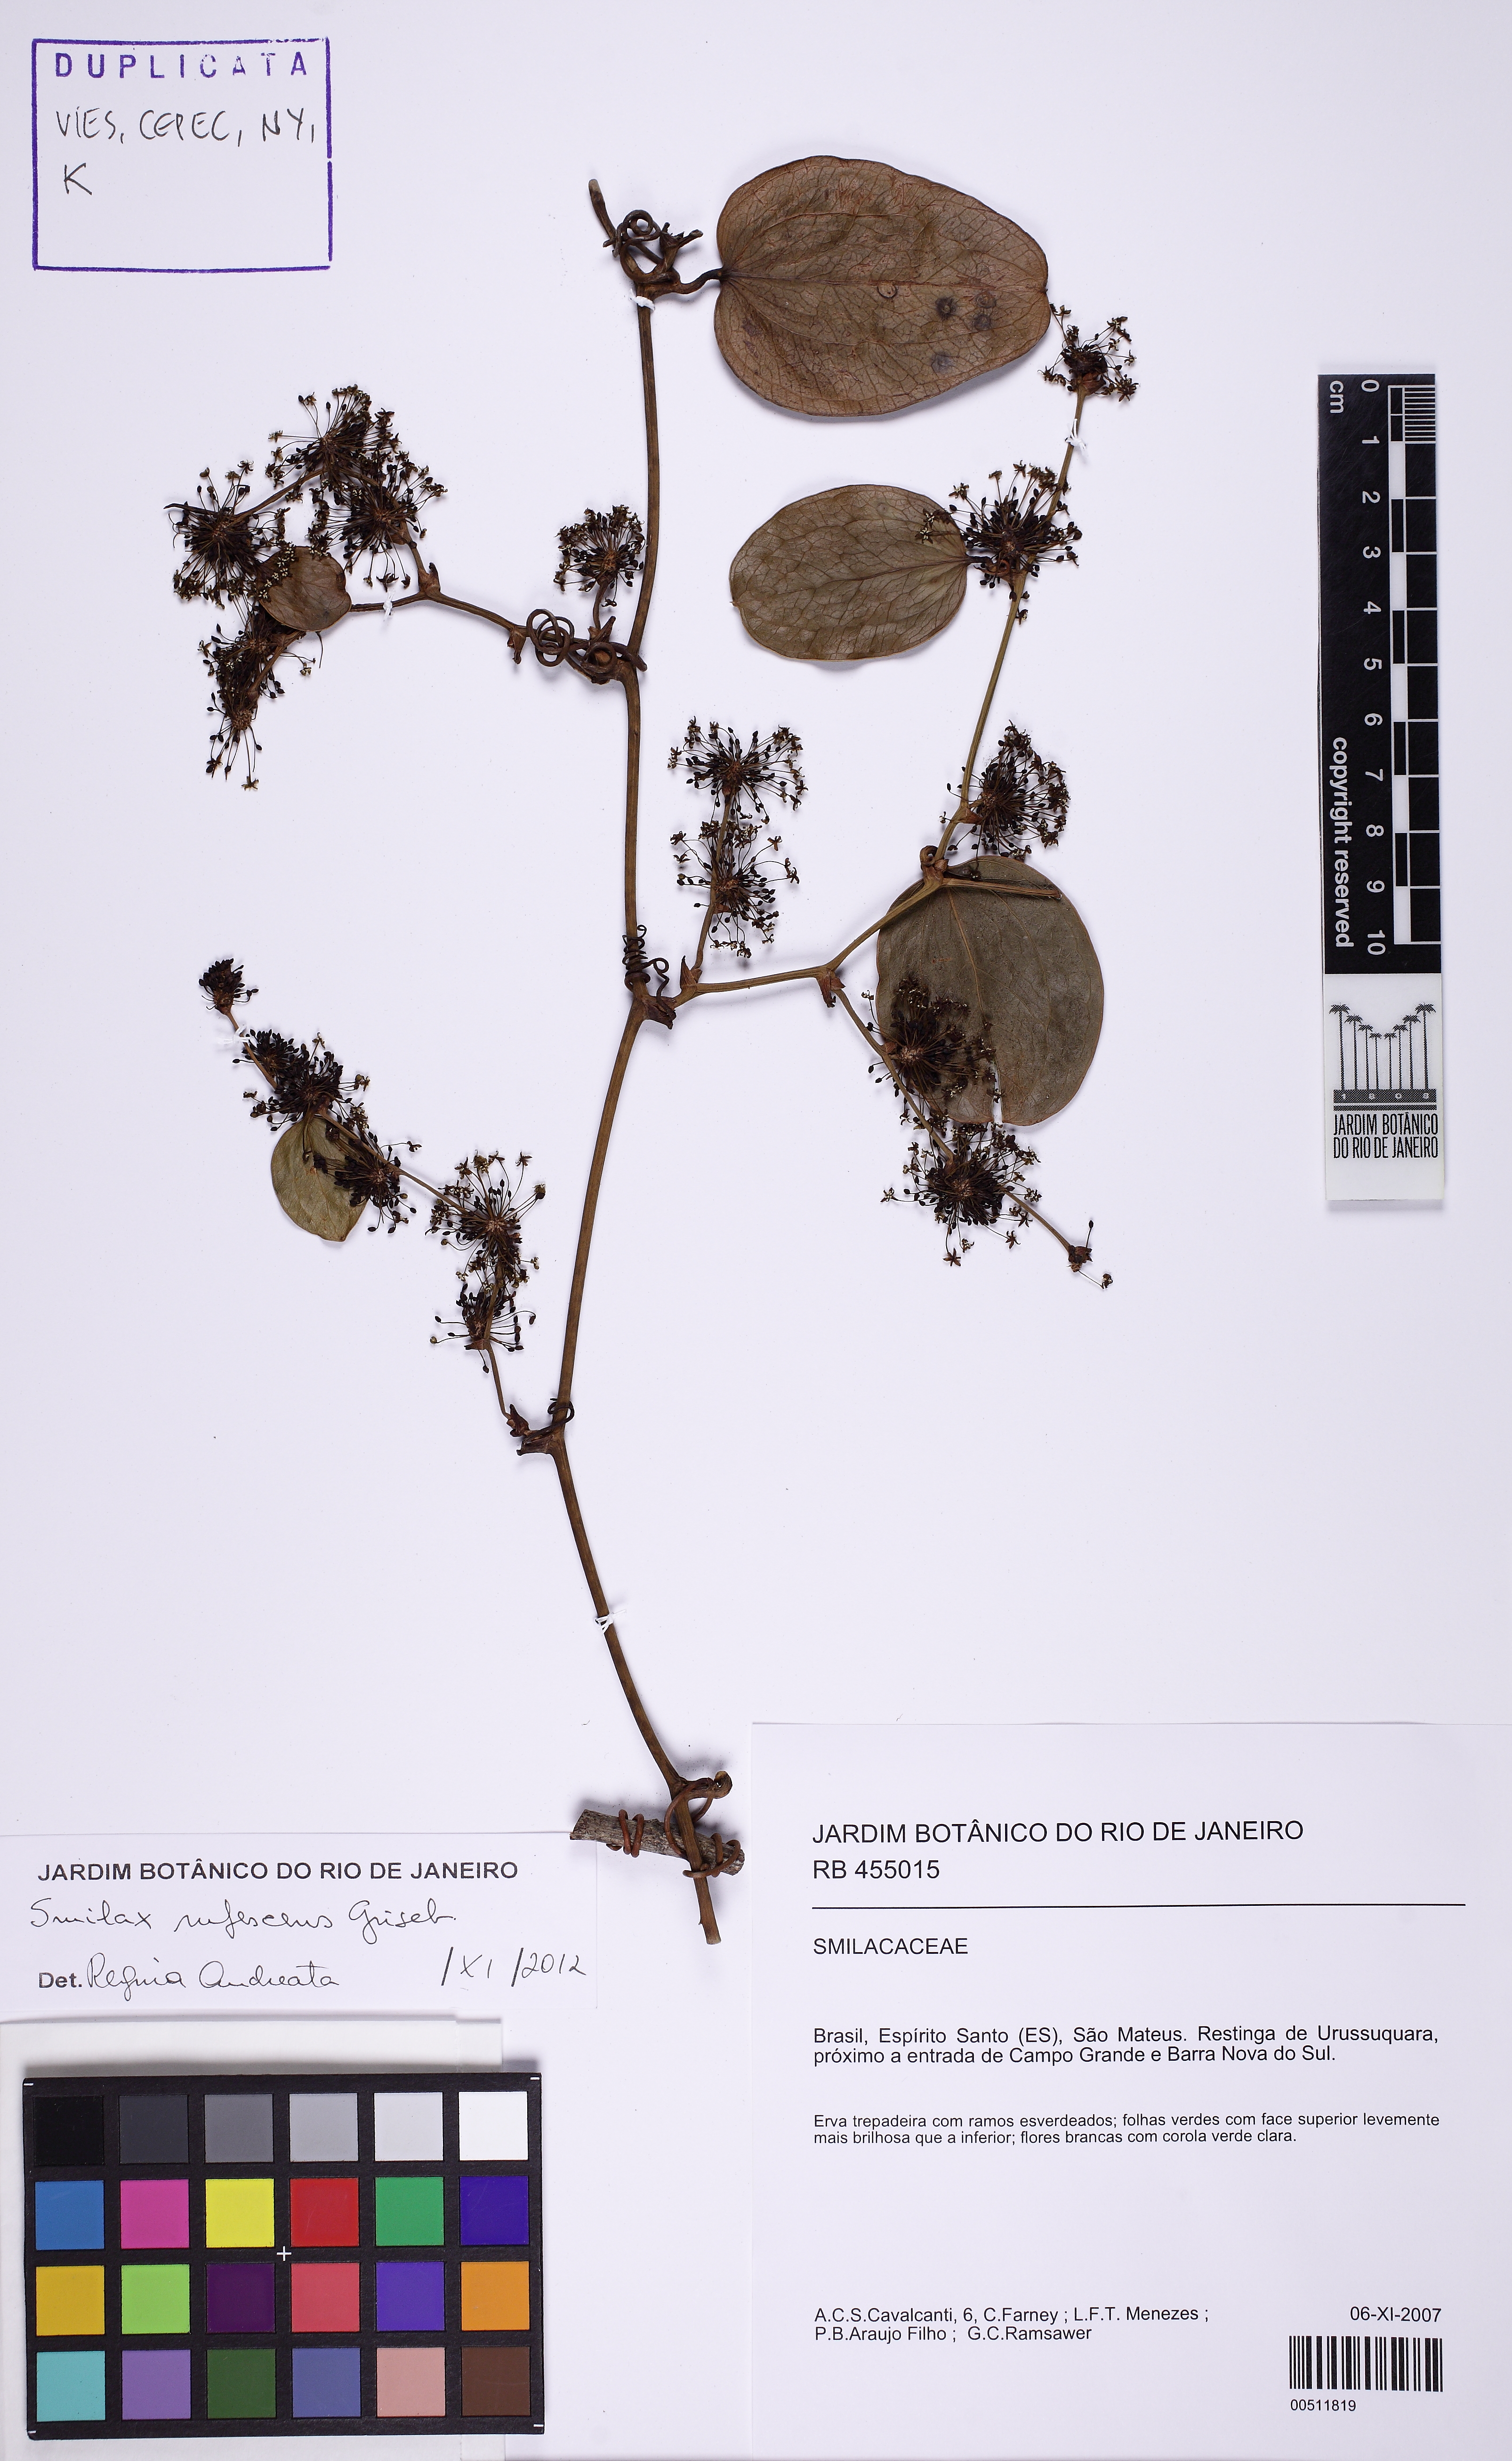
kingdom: Plantae
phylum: Tracheophyta
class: Liliopsida
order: Liliales
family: Smilacaceae
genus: Smilax
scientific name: Smilax rufescens
